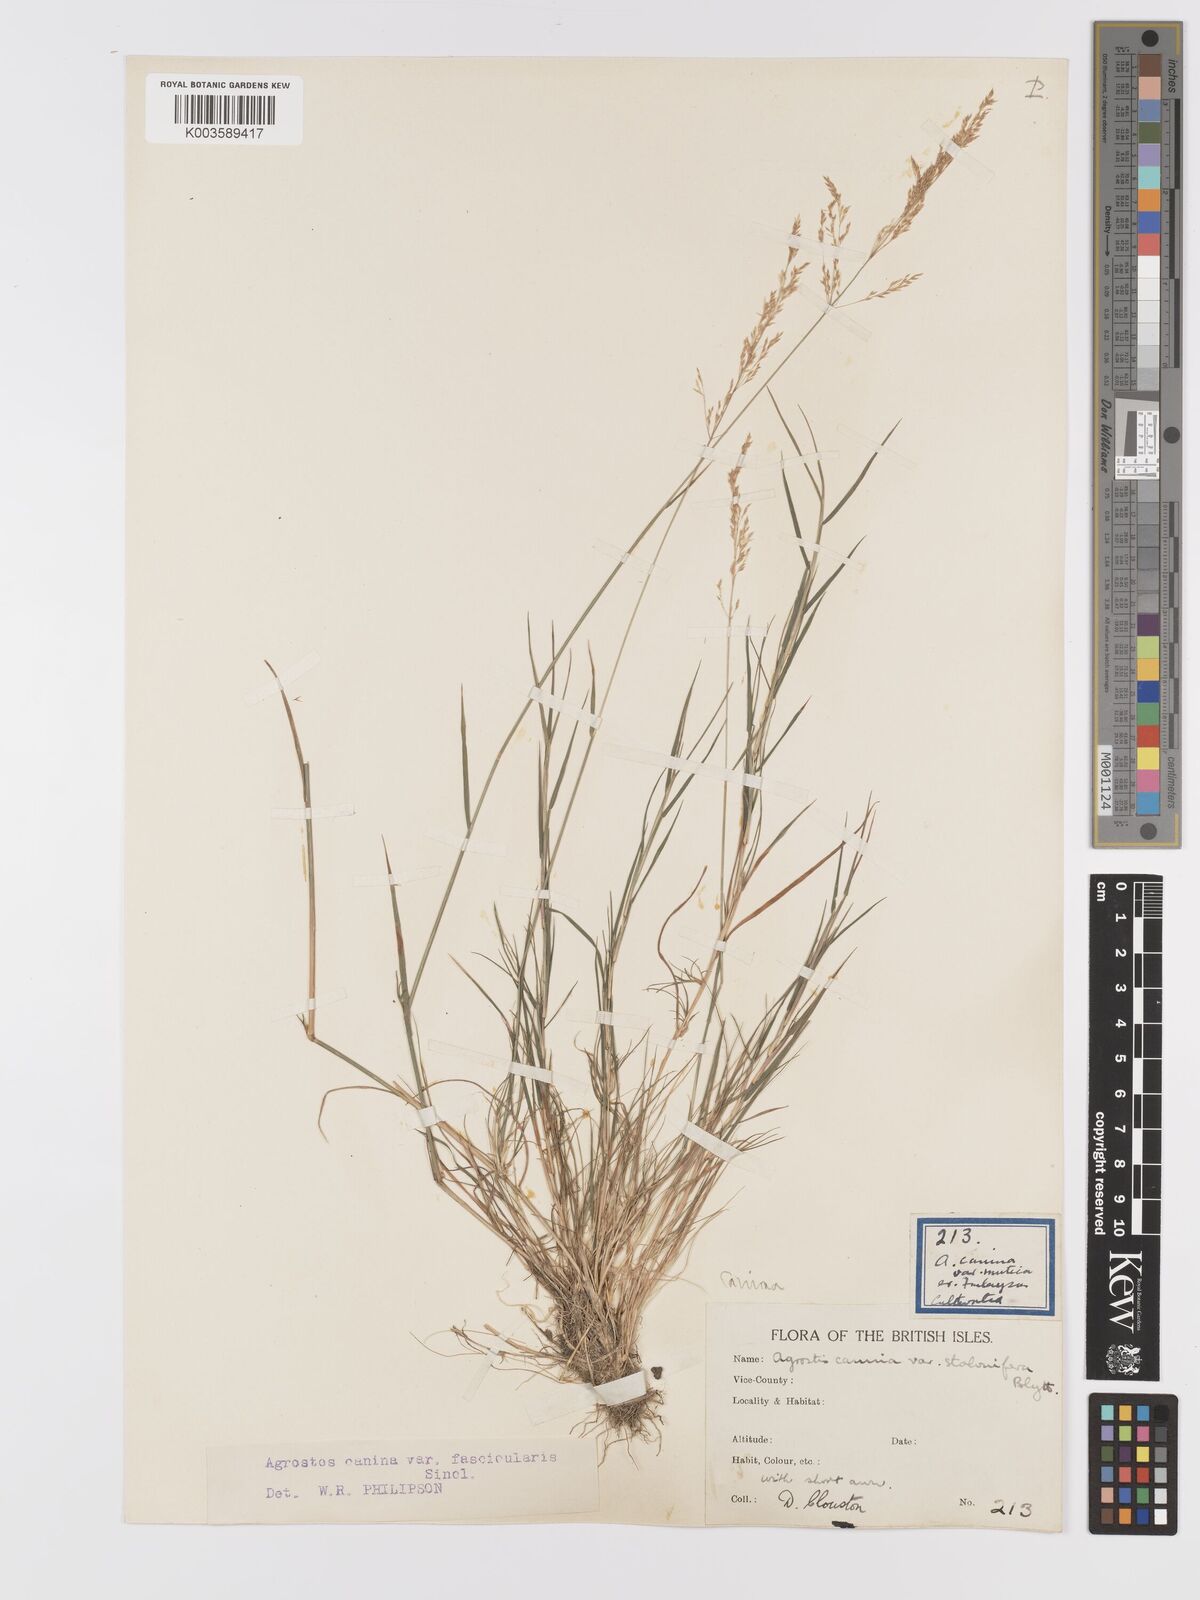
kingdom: Plantae
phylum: Tracheophyta
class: Liliopsida
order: Poales
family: Poaceae
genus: Agrostis
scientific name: Agrostis canina
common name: Velvet bent
